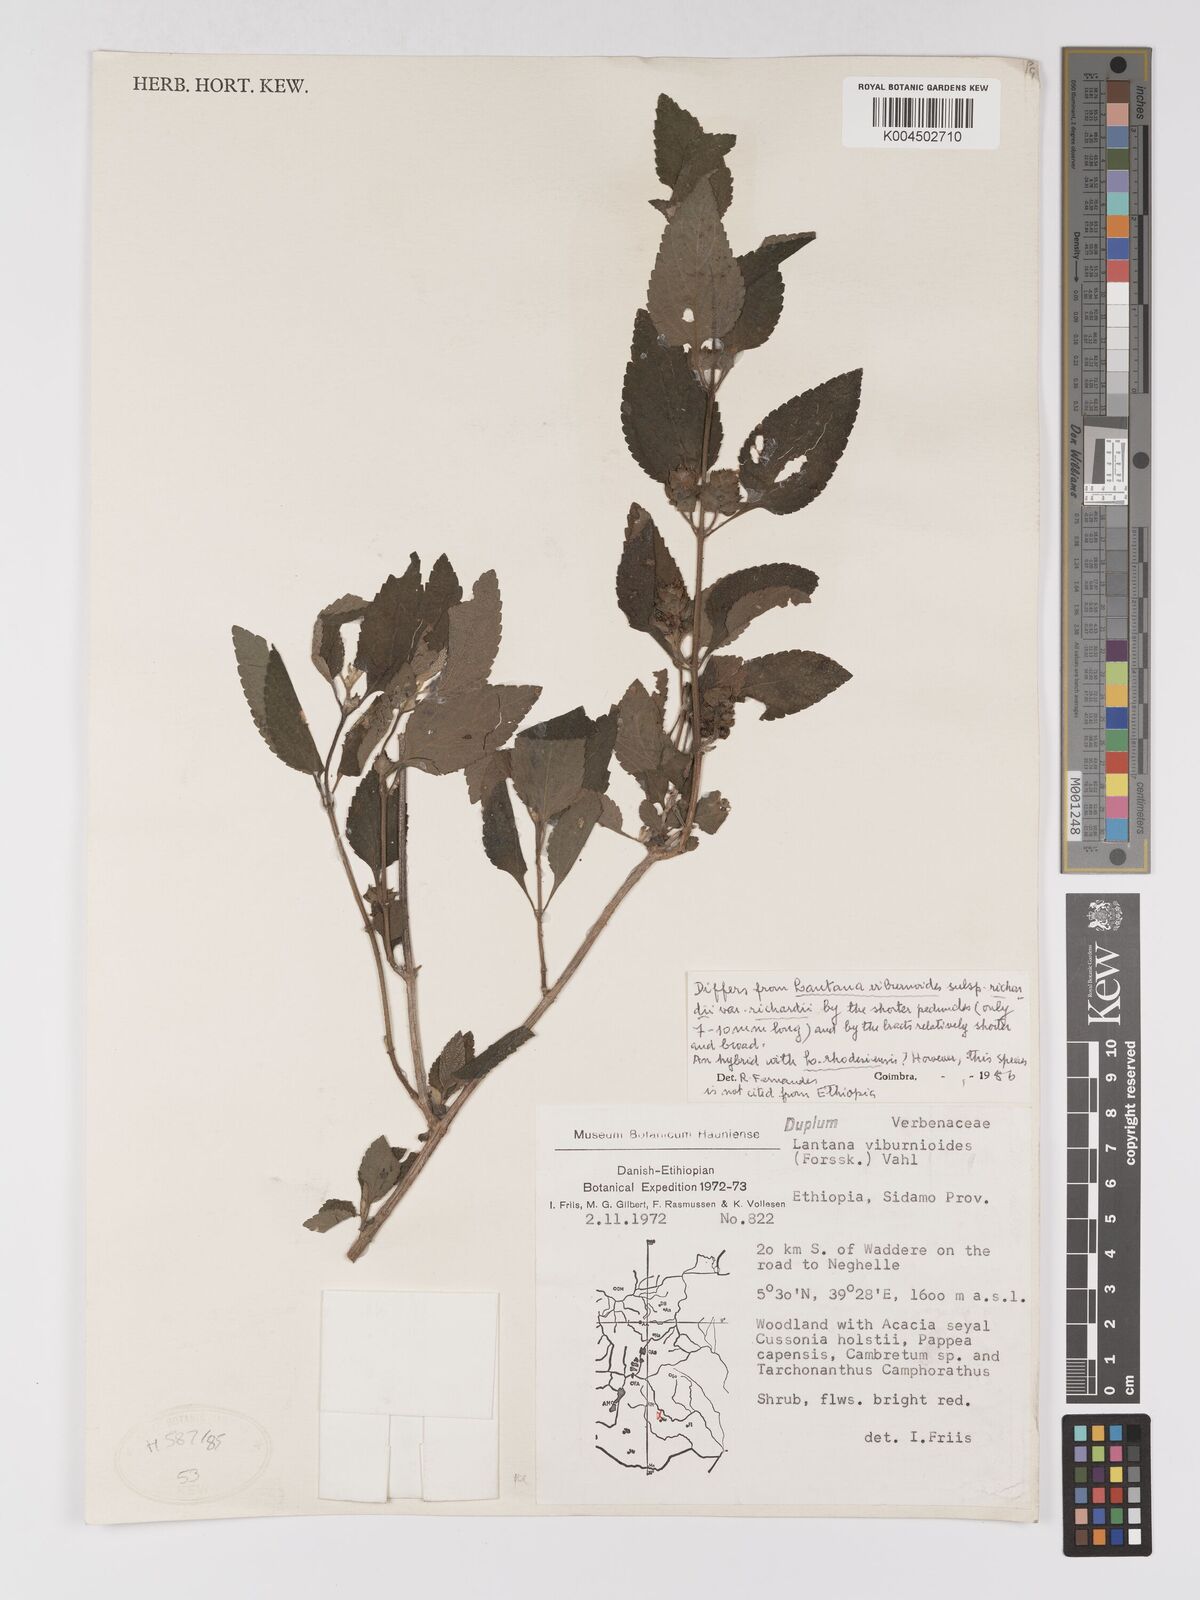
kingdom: Plantae
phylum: Tracheophyta
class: Magnoliopsida
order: Lamiales
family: Verbenaceae
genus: Lantana
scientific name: Lantana ukambensis
